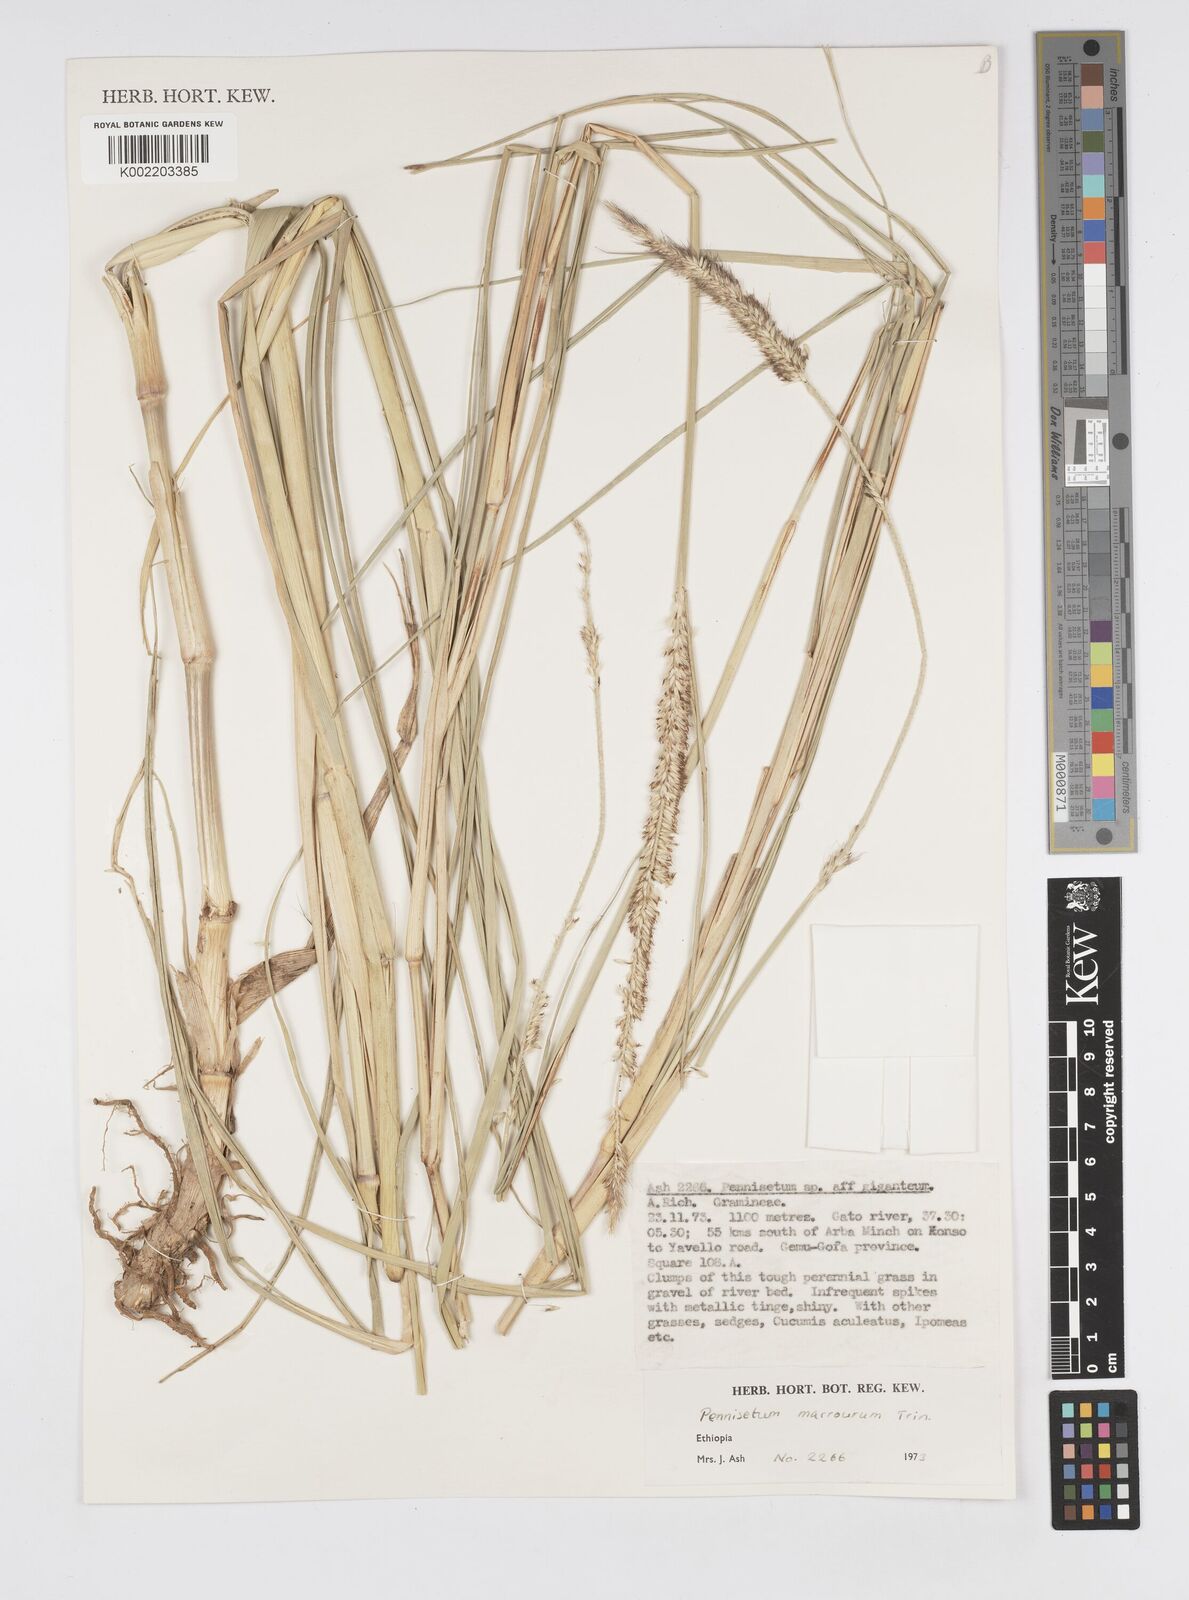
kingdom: Plantae
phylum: Tracheophyta
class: Liliopsida
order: Poales
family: Poaceae
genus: Cenchrus
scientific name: Cenchrus caudatus
